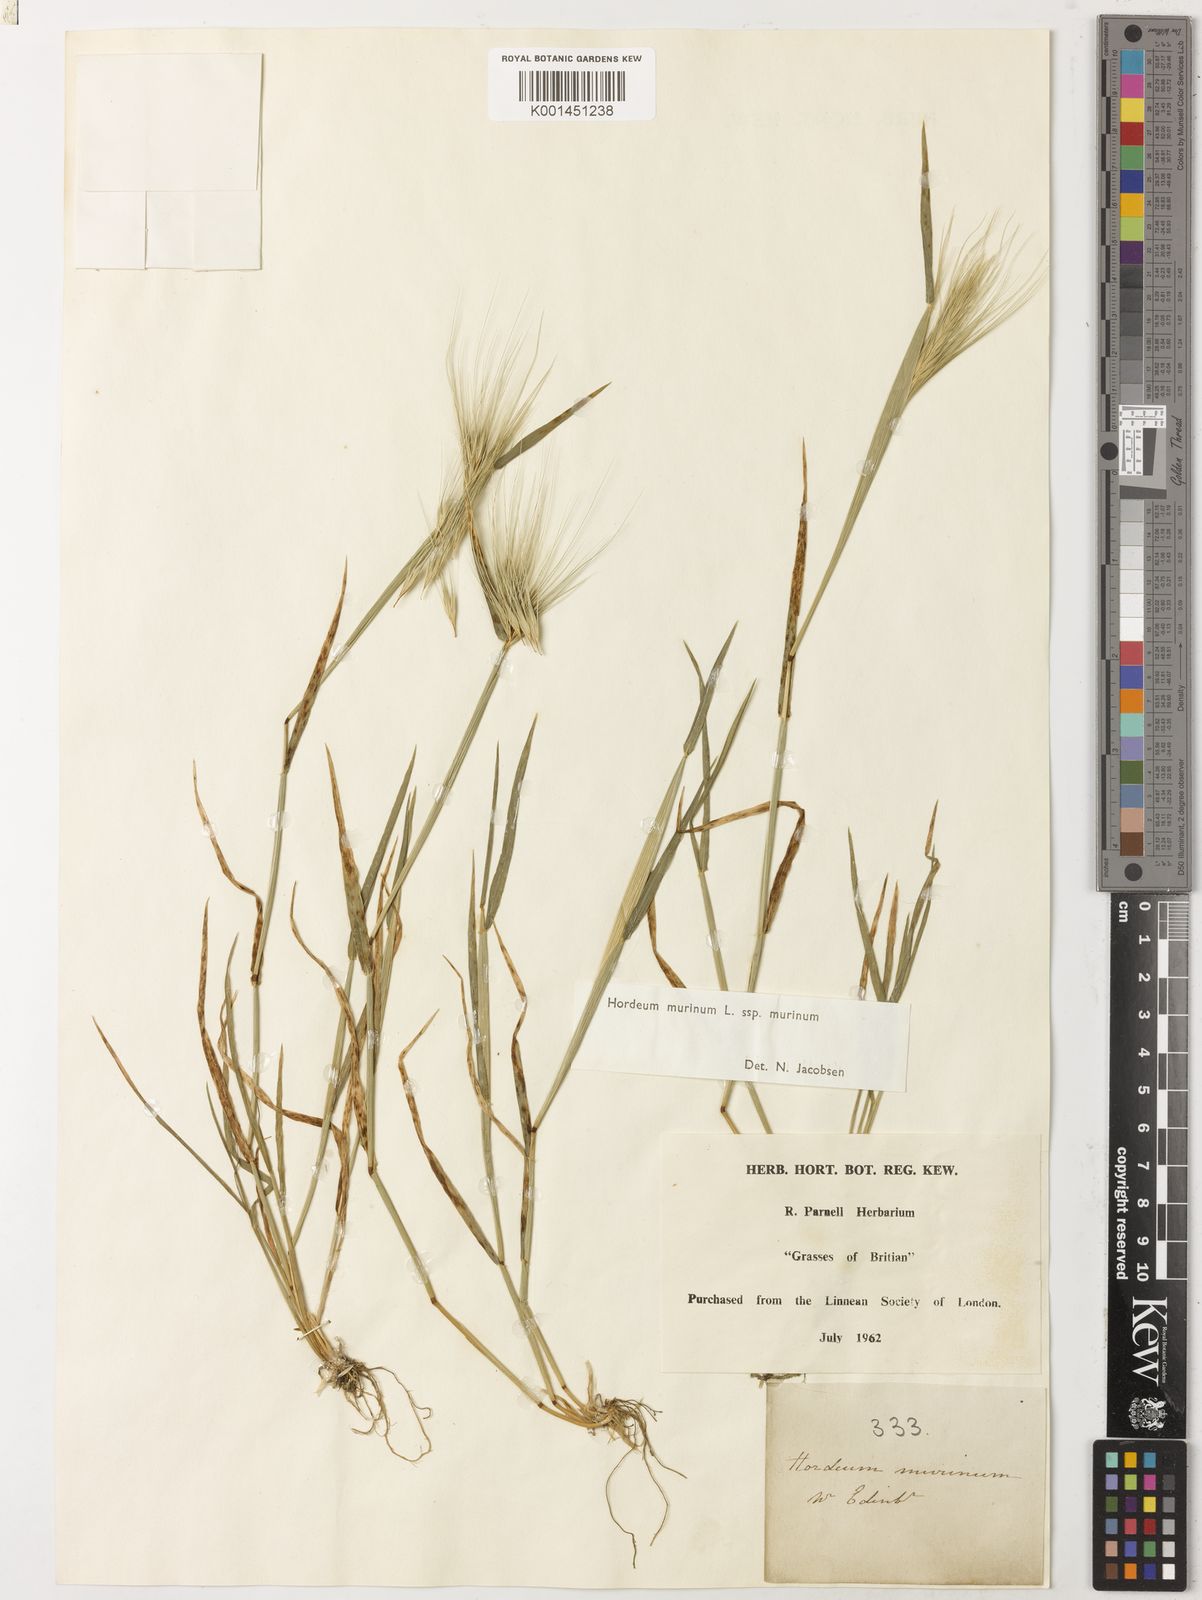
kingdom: Plantae
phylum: Tracheophyta
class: Liliopsida
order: Poales
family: Poaceae
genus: Hordeum
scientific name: Hordeum murinum
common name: Wall barley
